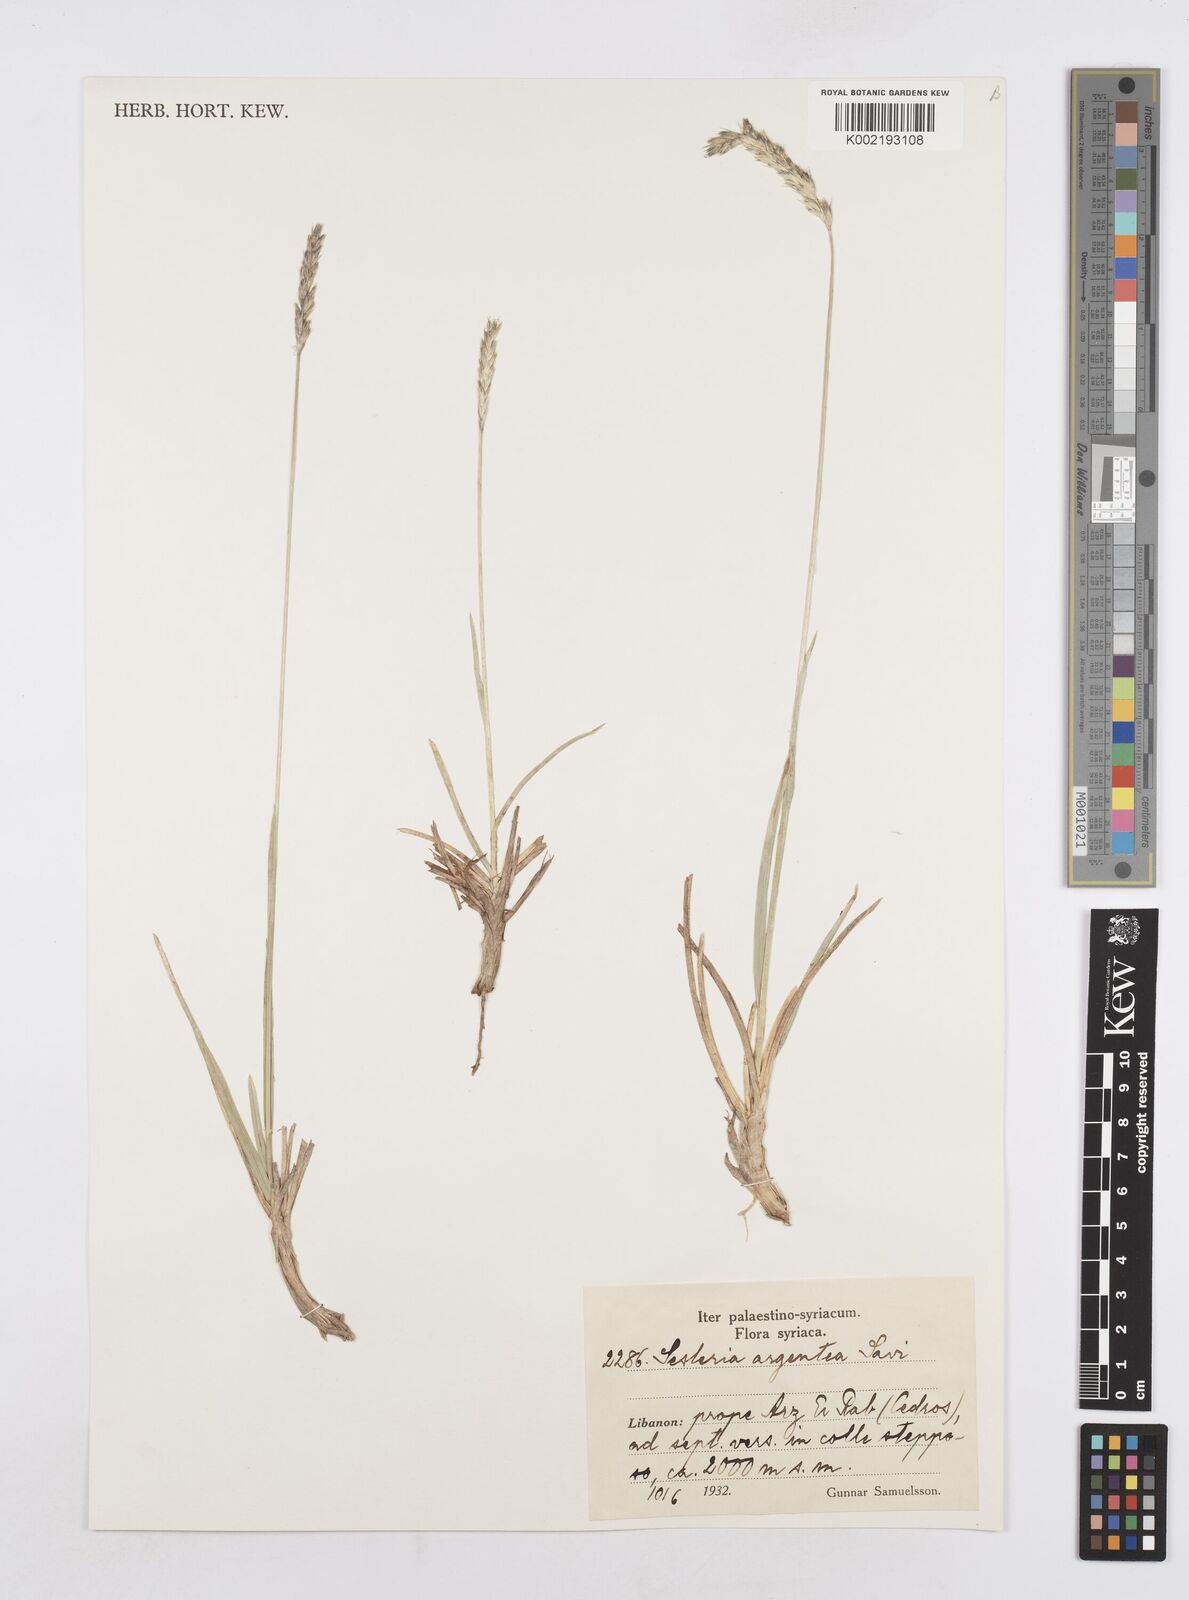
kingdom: Plantae
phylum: Tracheophyta
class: Liliopsida
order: Poales
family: Poaceae
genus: Sesleria
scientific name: Sesleria alba
